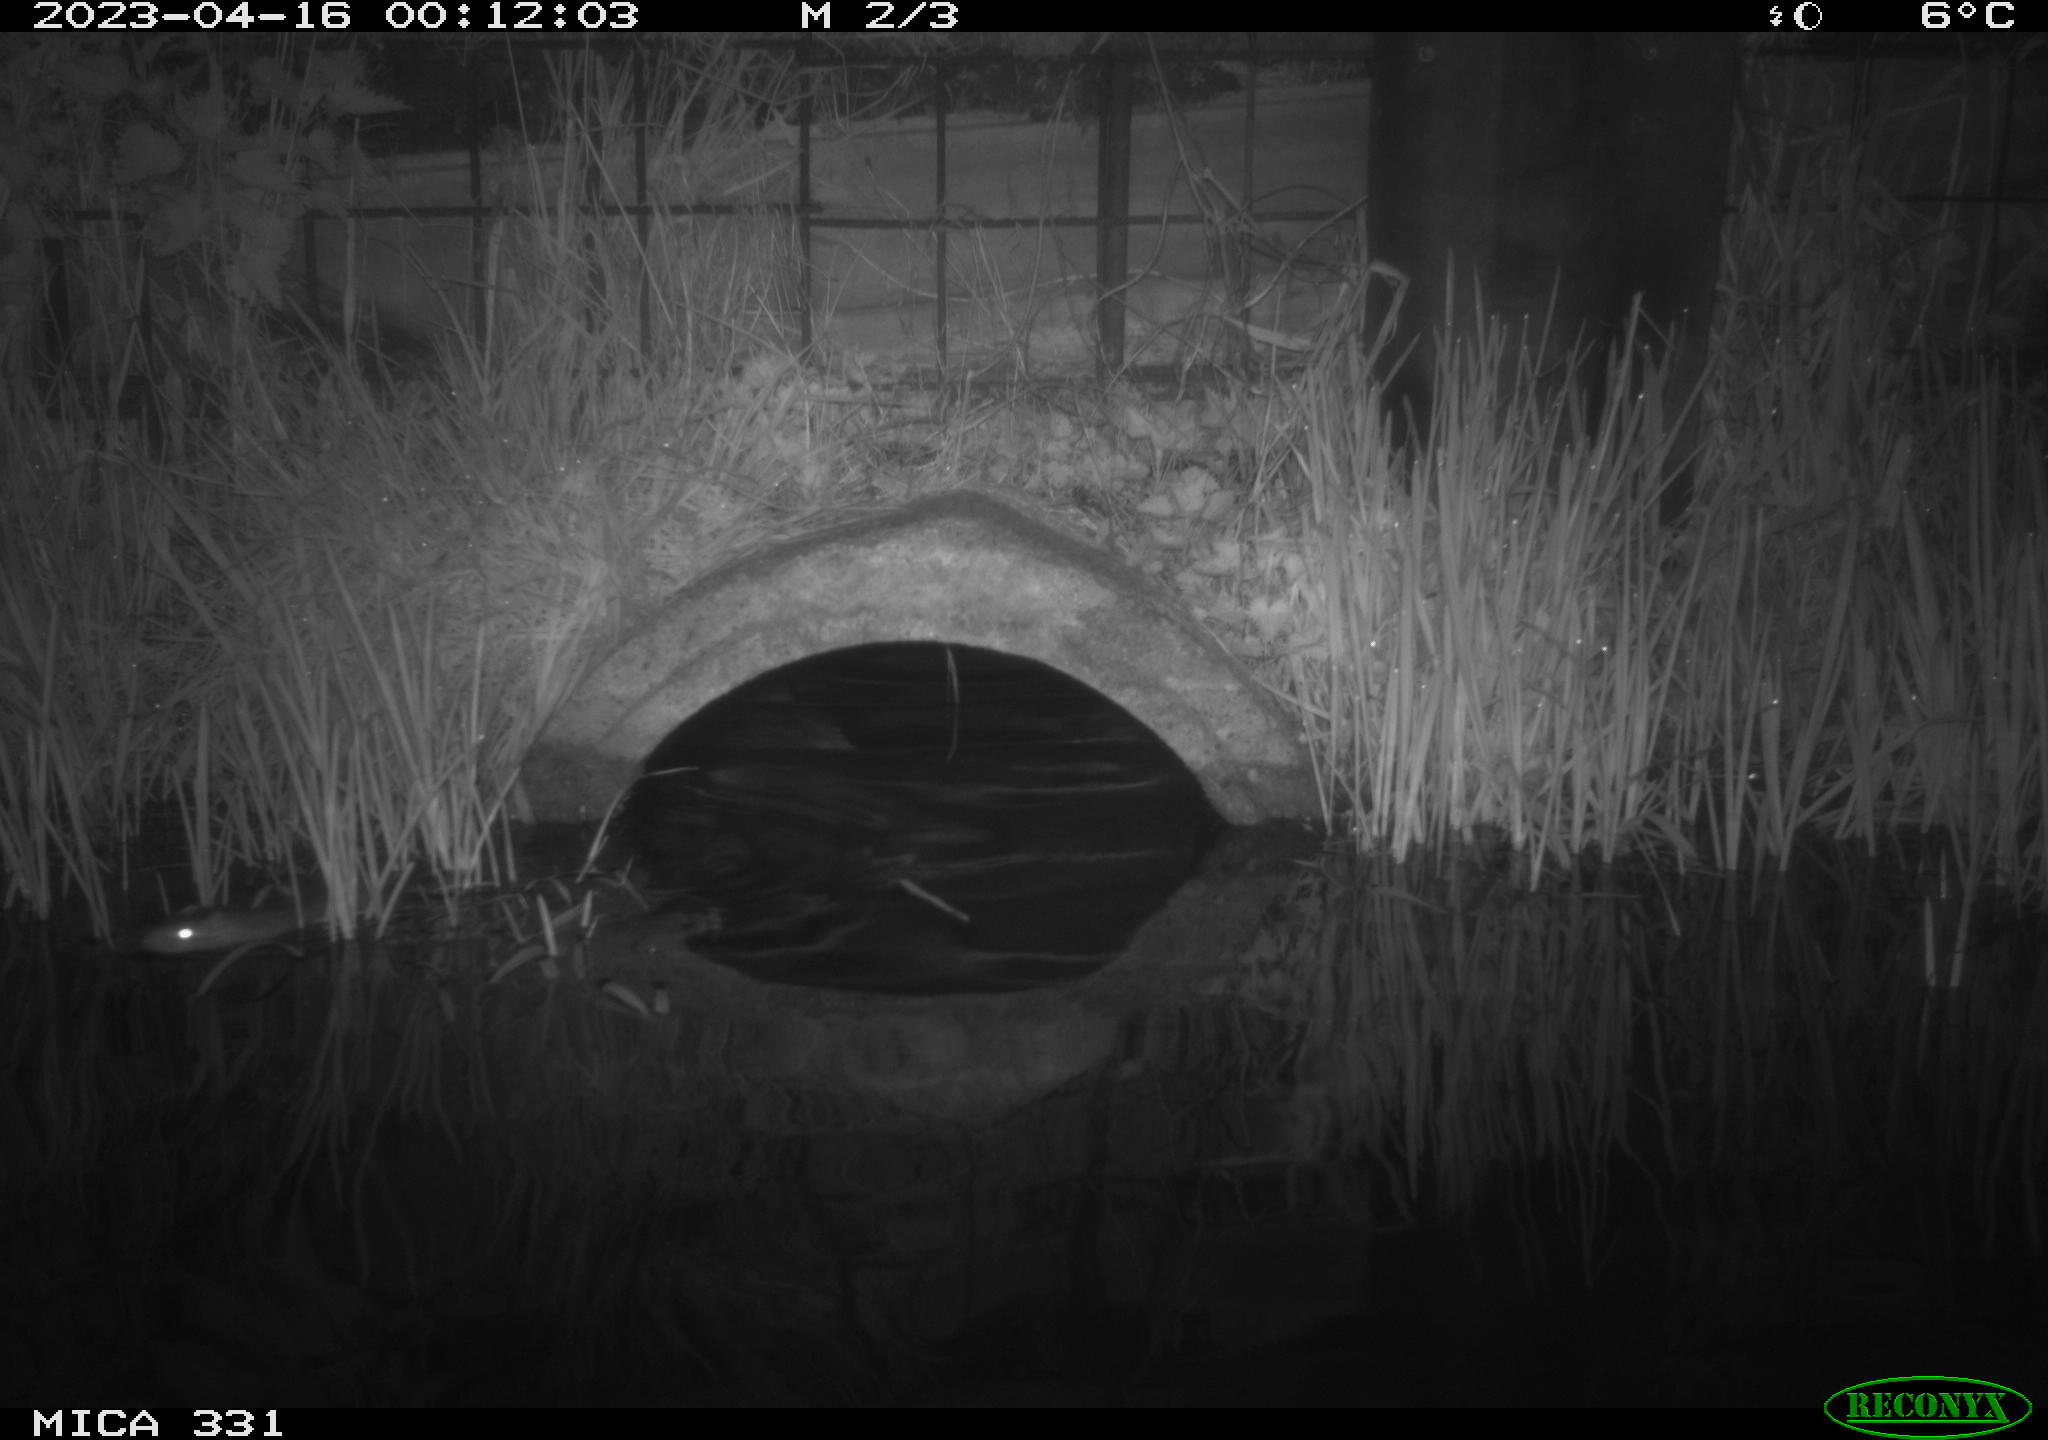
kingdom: Animalia
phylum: Chordata
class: Mammalia
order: Rodentia
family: Muridae
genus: Rattus
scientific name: Rattus norvegicus
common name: Brown rat
